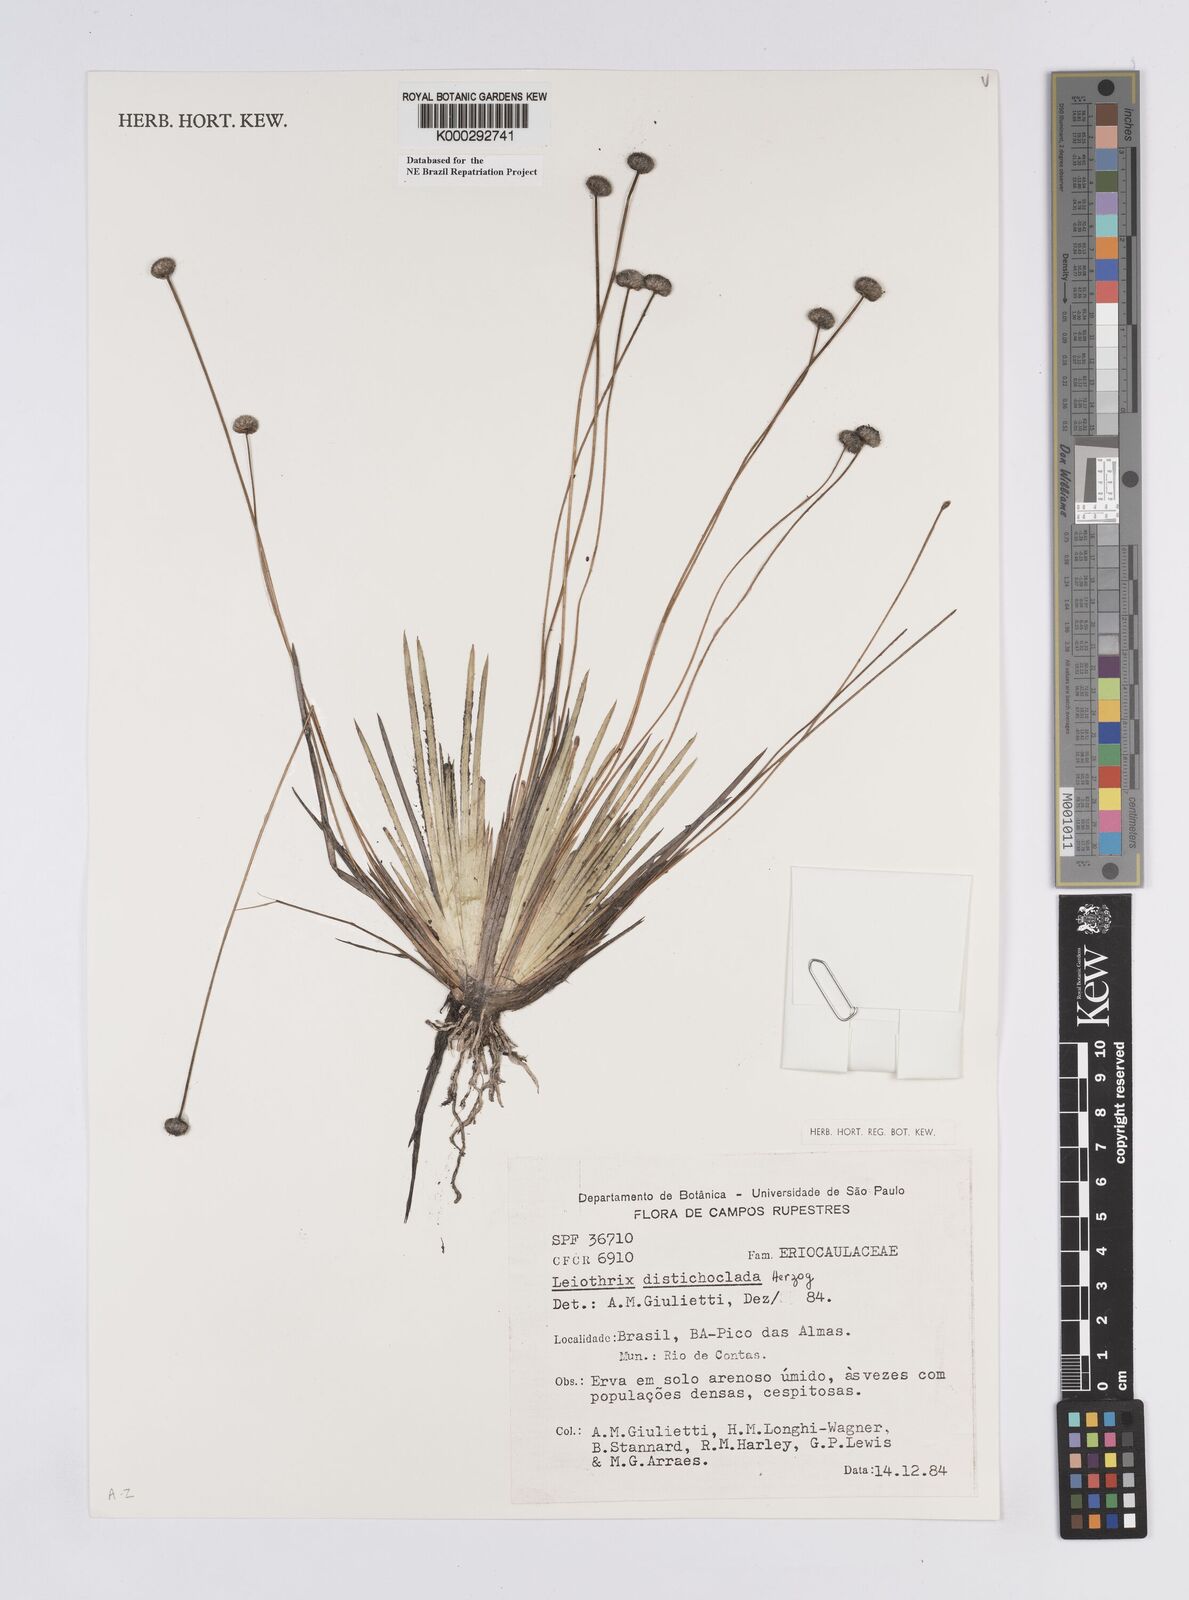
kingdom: Plantae
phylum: Tracheophyta
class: Liliopsida
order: Poales
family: Eriocaulaceae
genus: Leiothrix
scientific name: Leiothrix distichoclada
